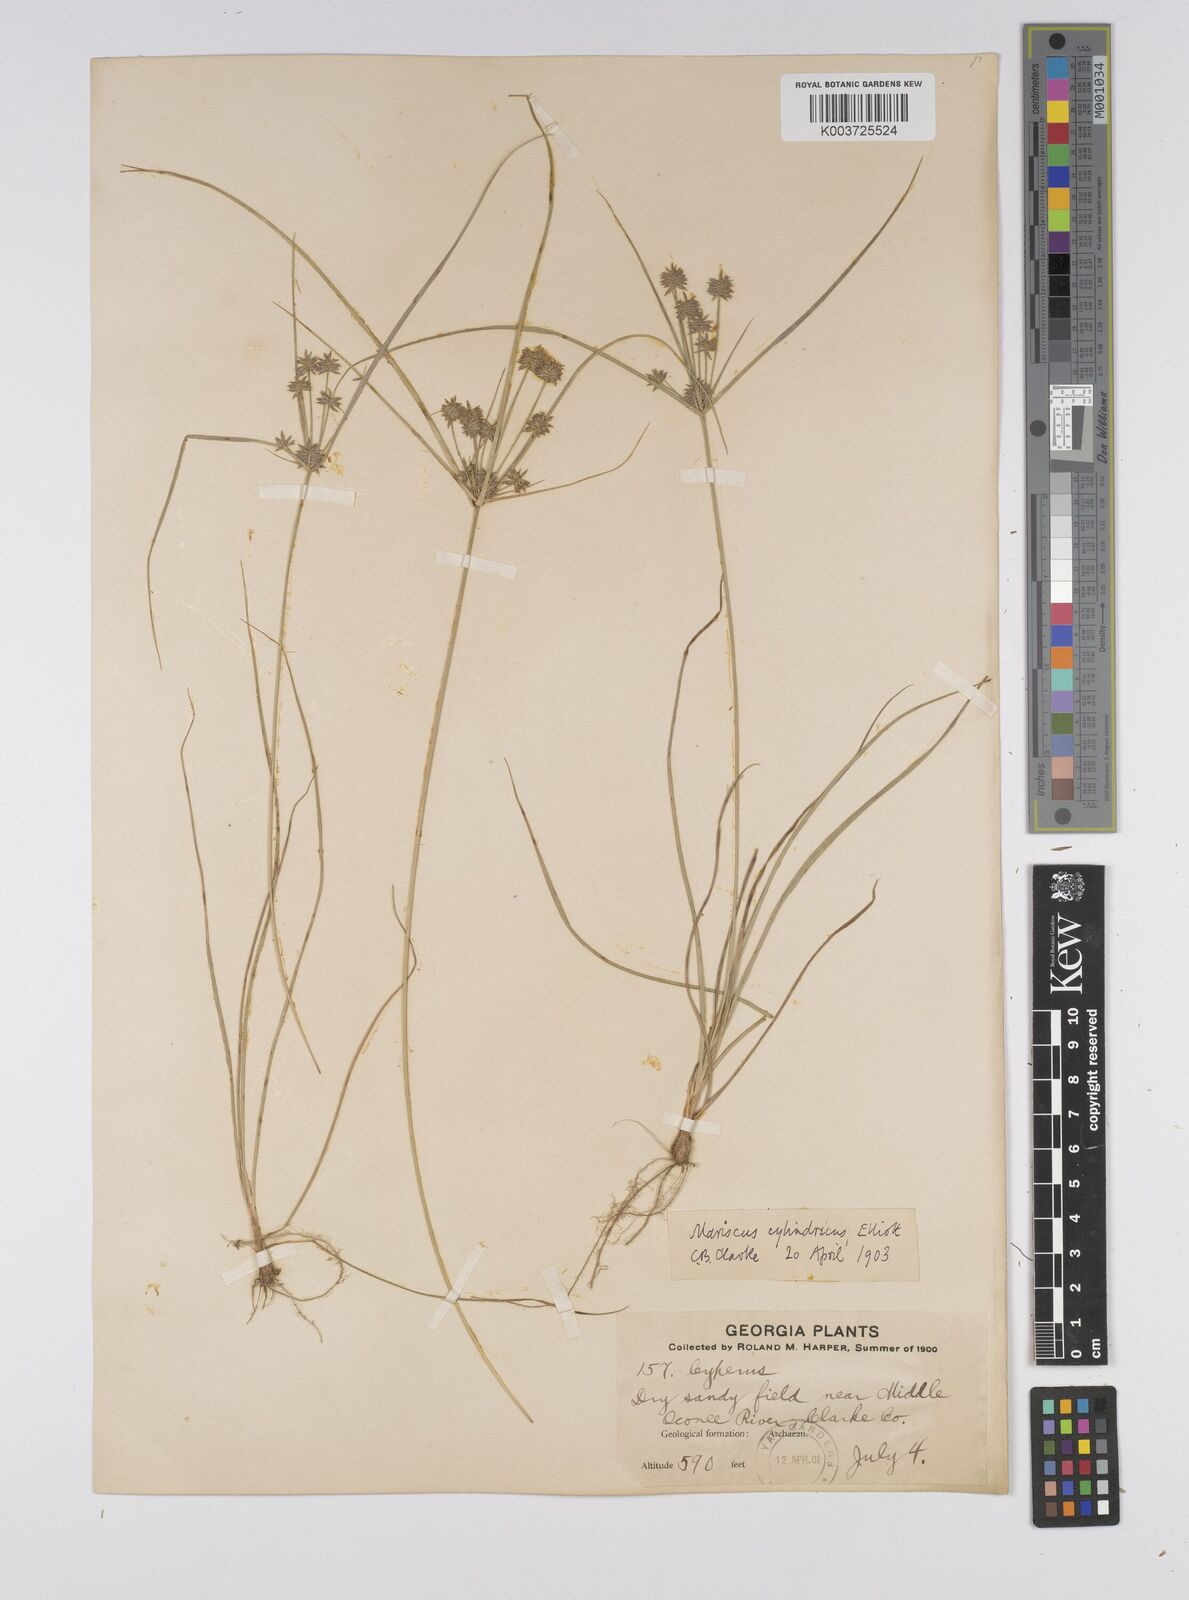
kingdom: Plantae
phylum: Tracheophyta
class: Liliopsida
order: Poales
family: Cyperaceae
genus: Cyperus
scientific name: Cyperus retrorsus
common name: Pinebarren flat sedge
